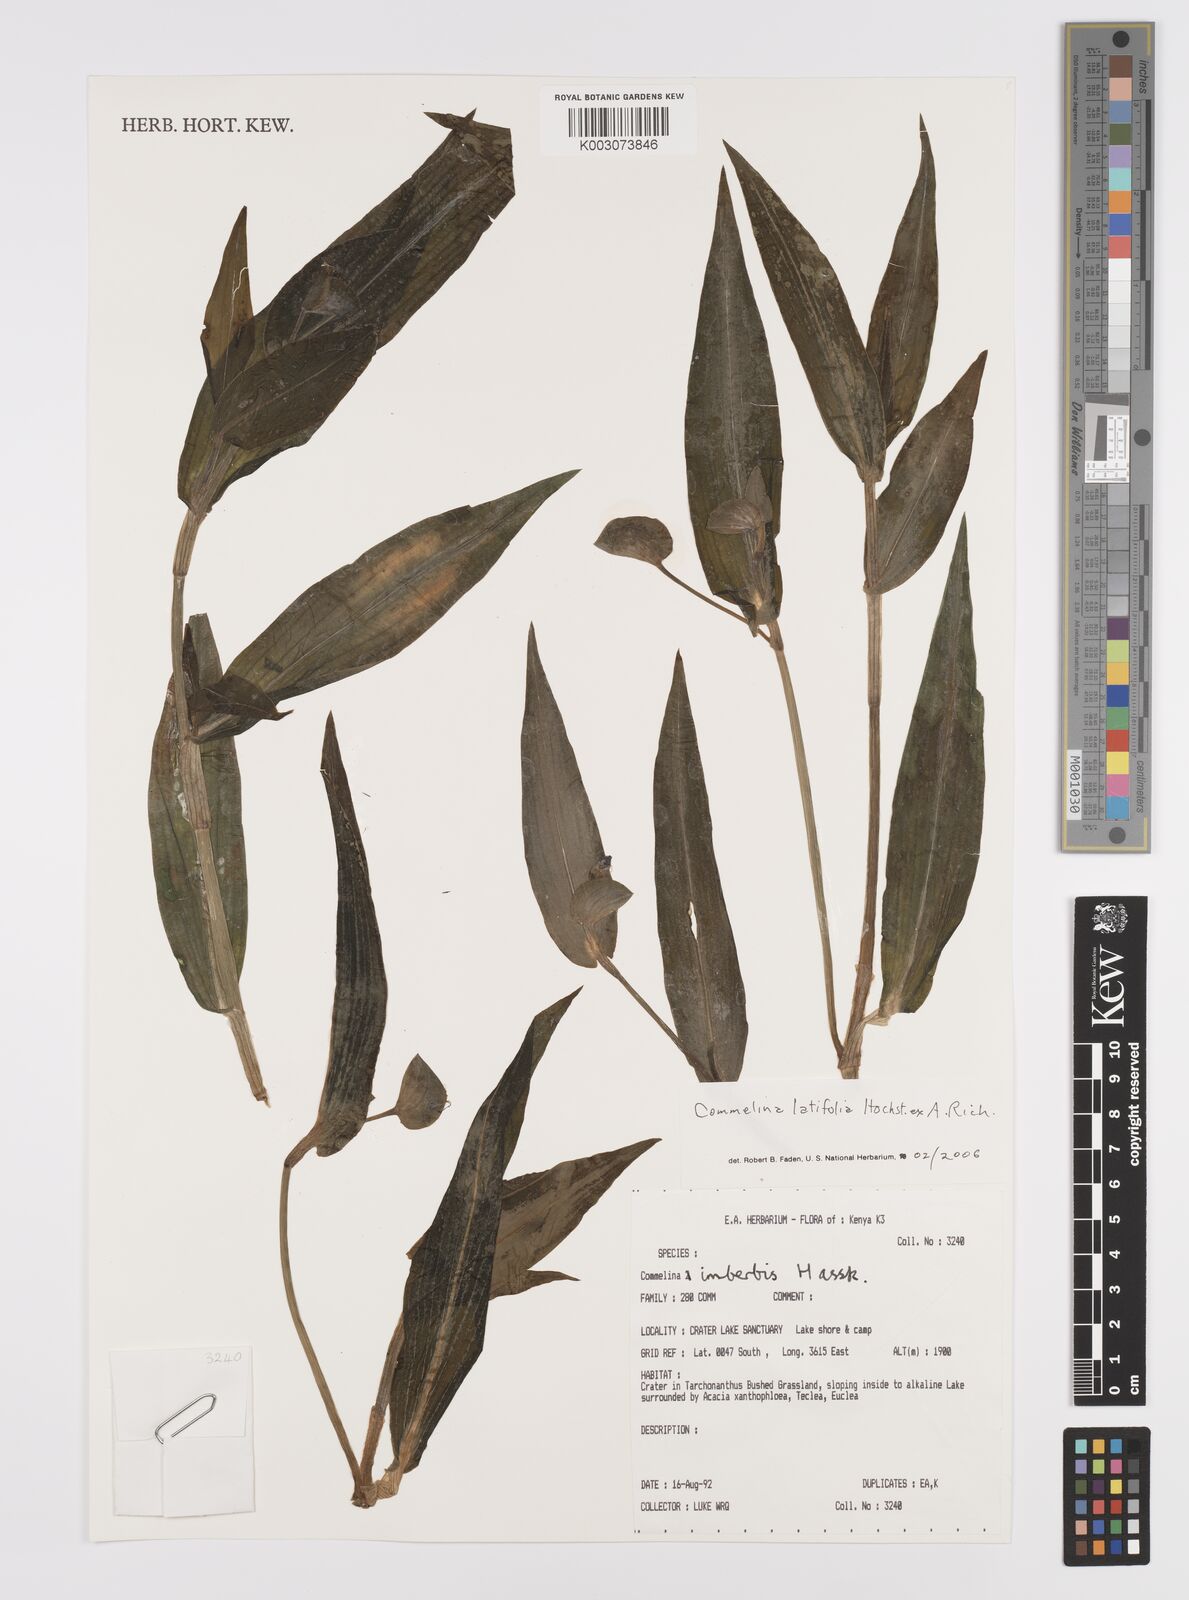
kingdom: Plantae
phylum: Tracheophyta
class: Liliopsida
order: Commelinales
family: Commelinaceae
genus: Commelina
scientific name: Commelina latifolia
